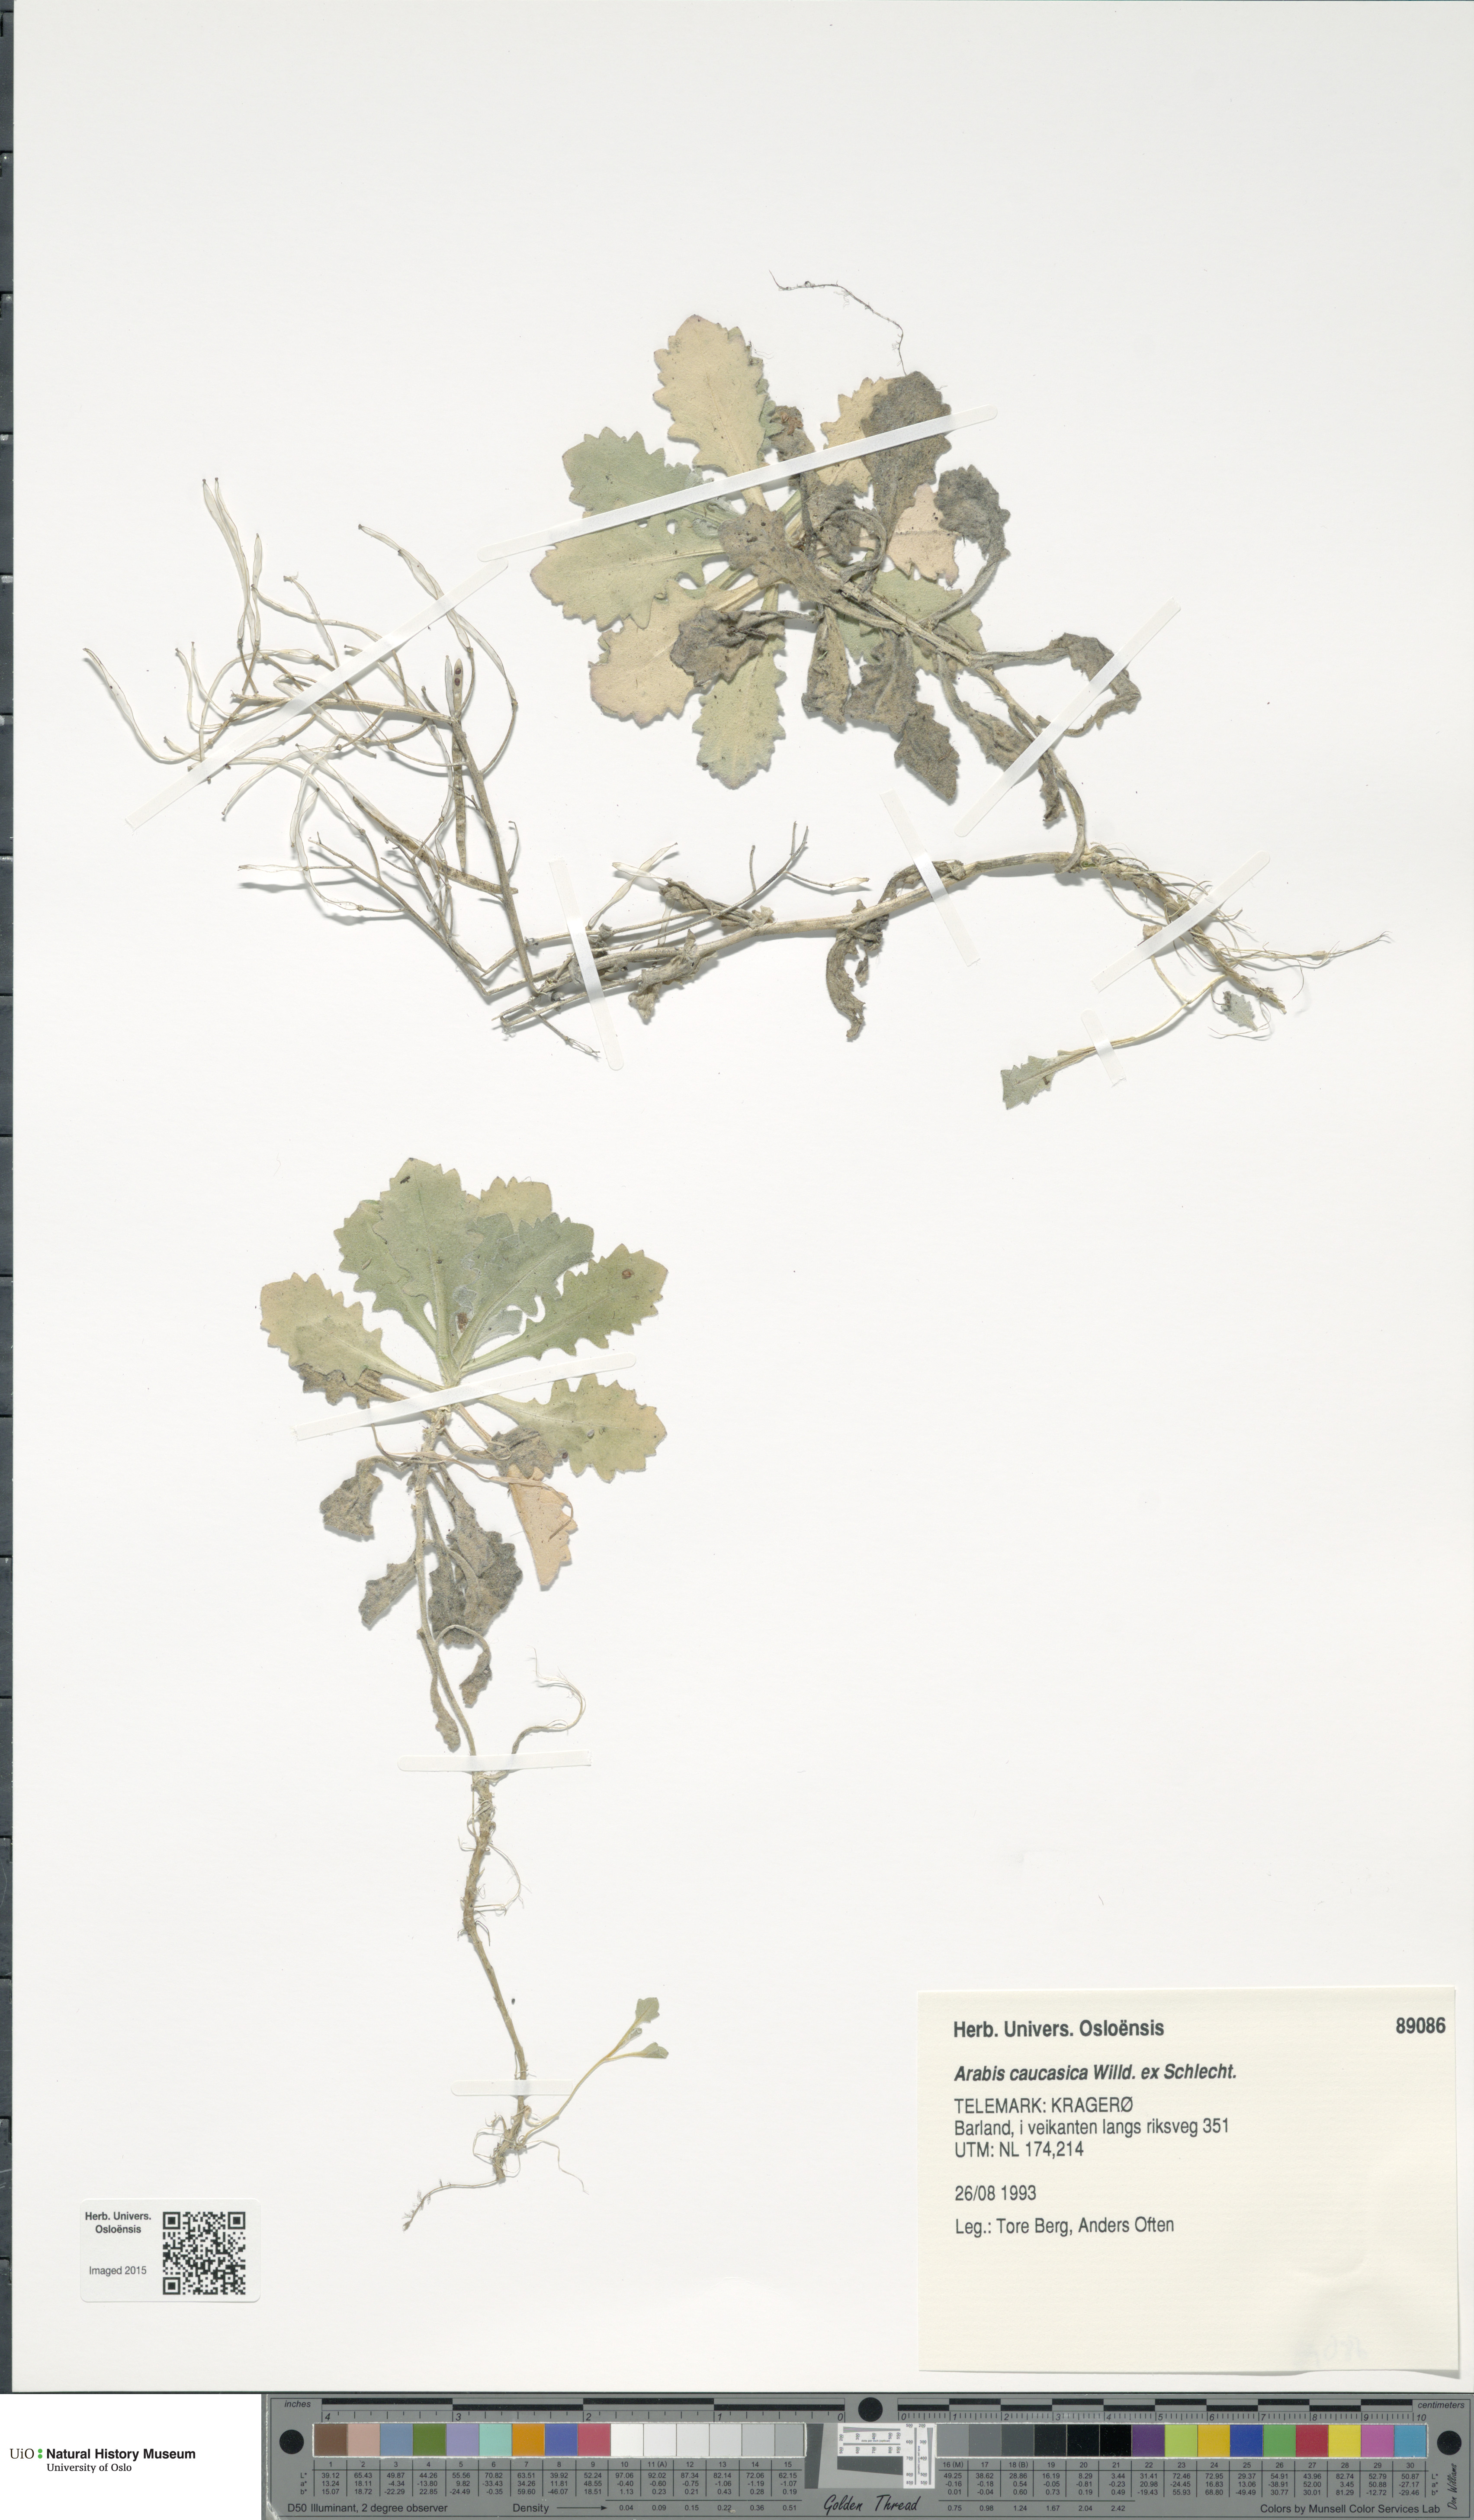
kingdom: Plantae
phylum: Tracheophyta
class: Magnoliopsida
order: Brassicales
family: Brassicaceae
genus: Arabis
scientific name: Arabis caucasica
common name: Gray rockcress
